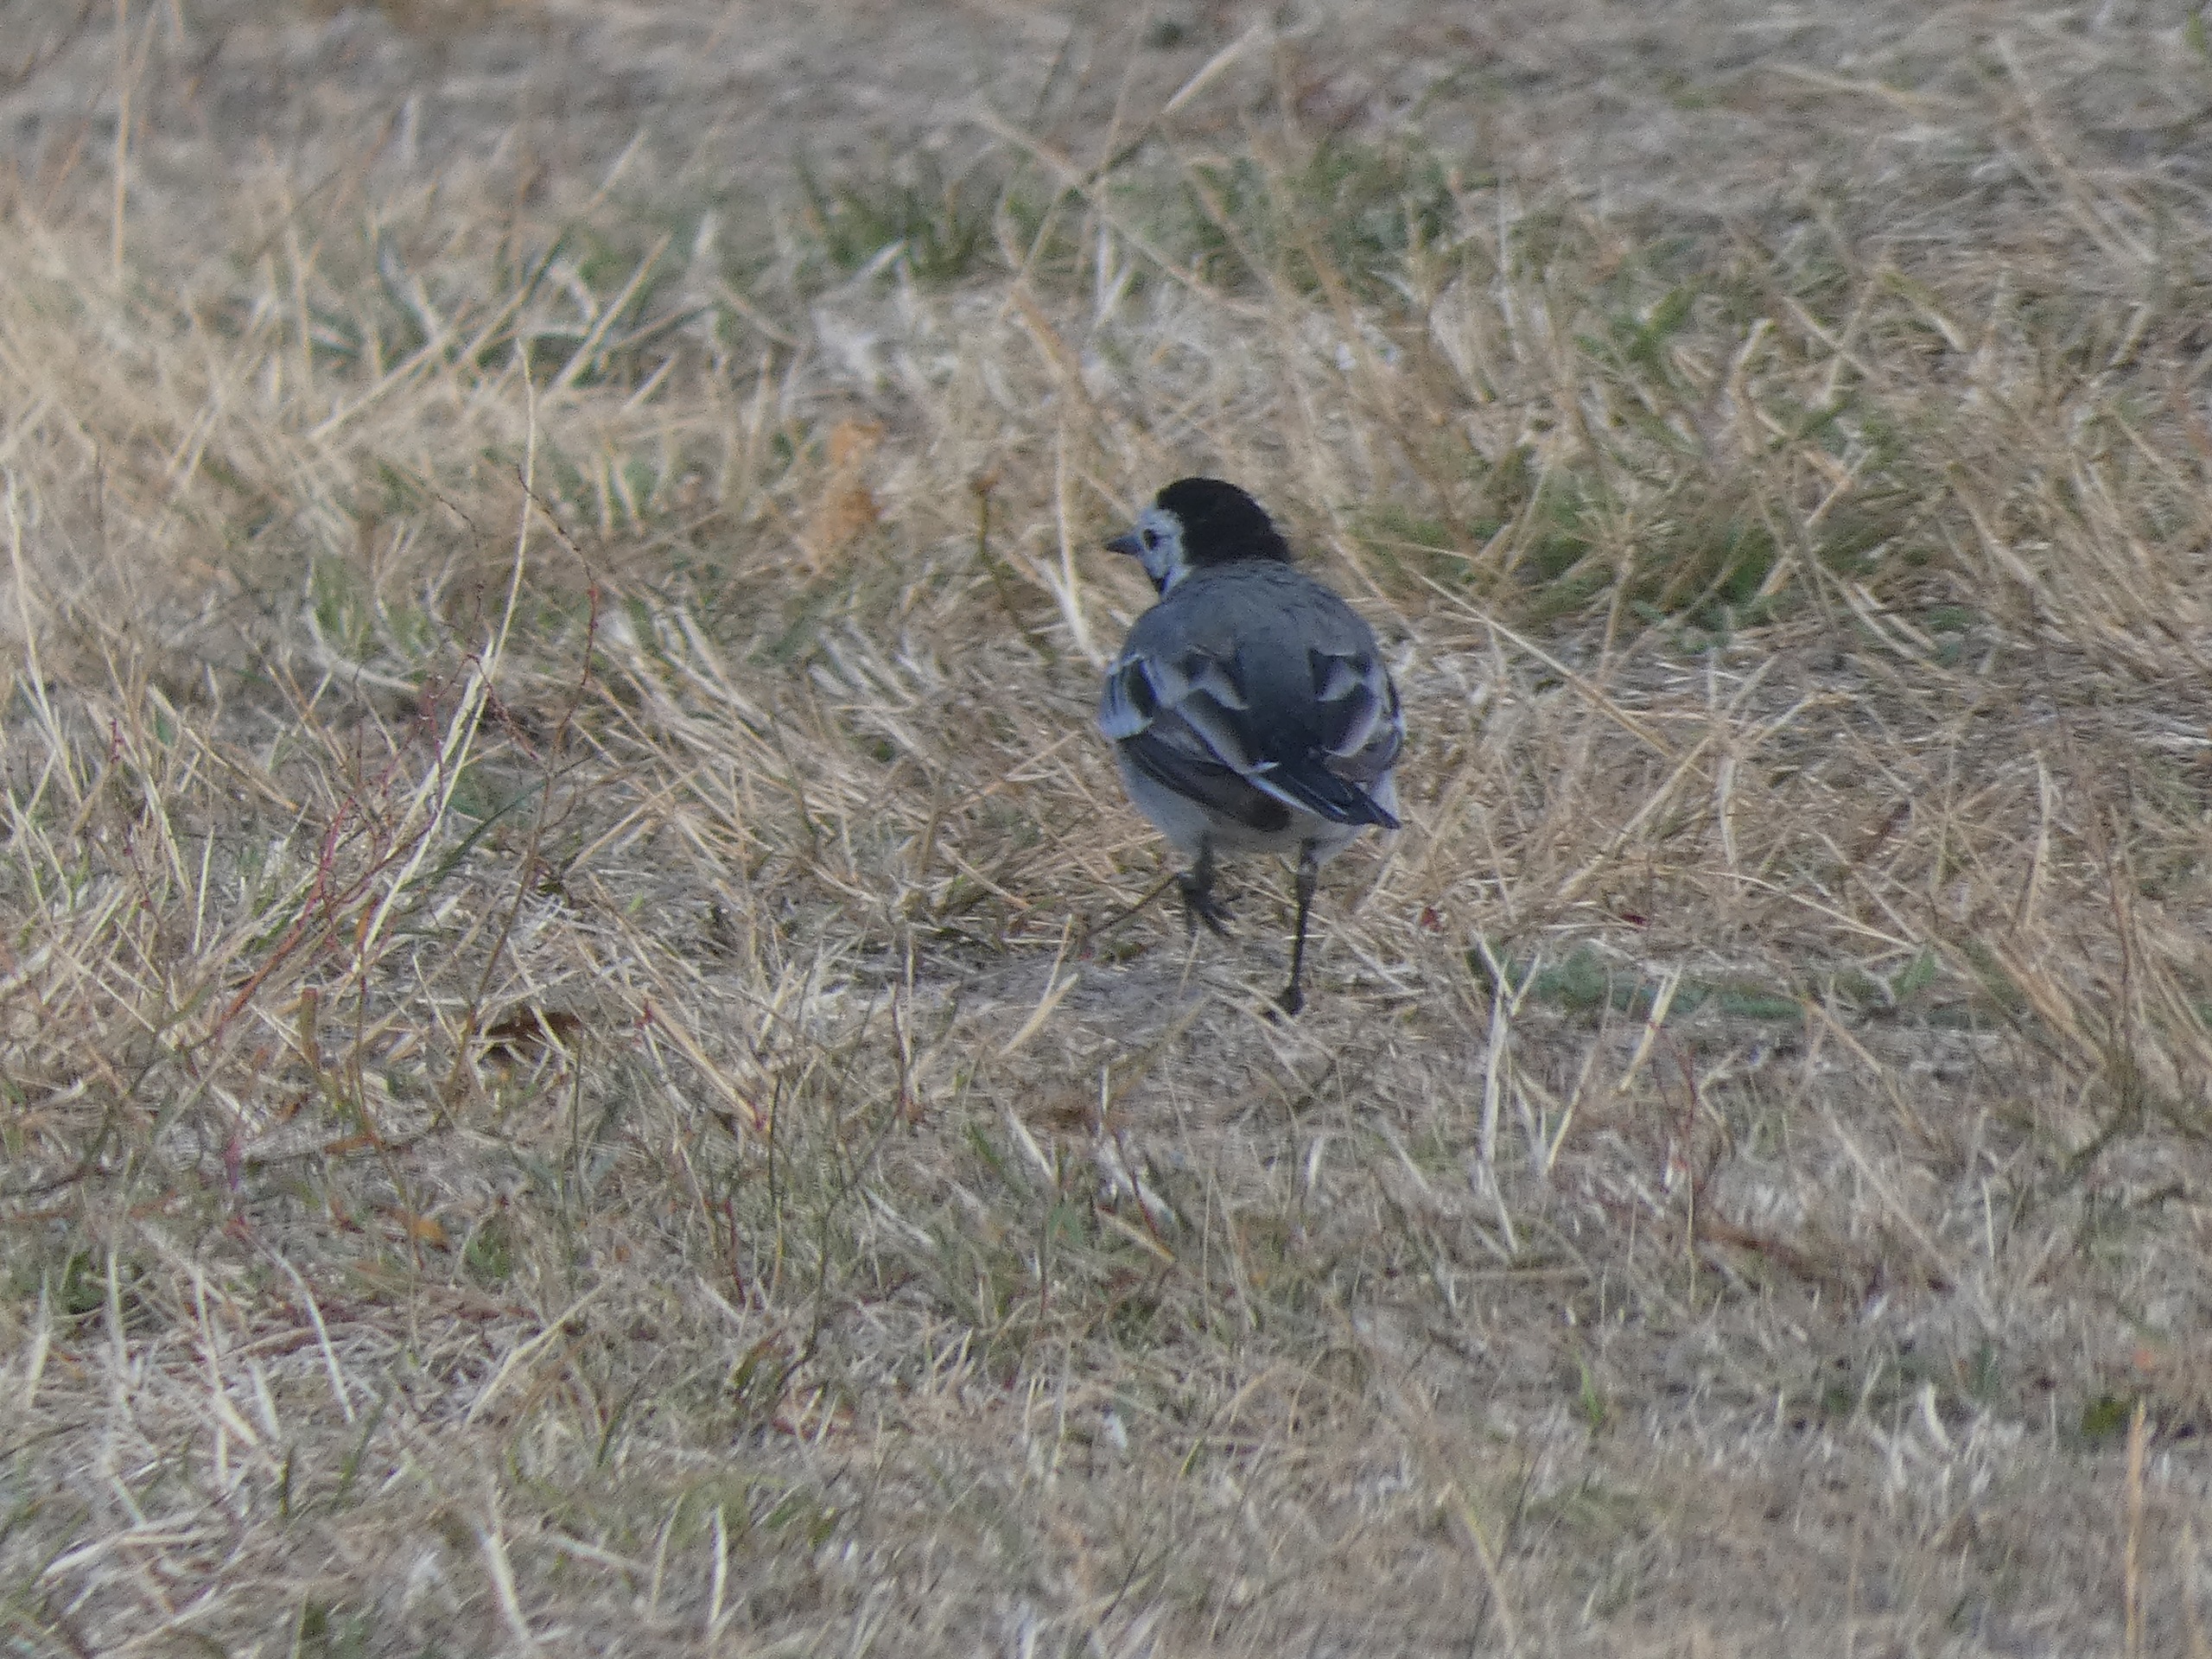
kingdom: Animalia
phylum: Chordata
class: Aves
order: Passeriformes
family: Motacillidae
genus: Motacilla
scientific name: Motacilla alba
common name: Hvid vipstjert
